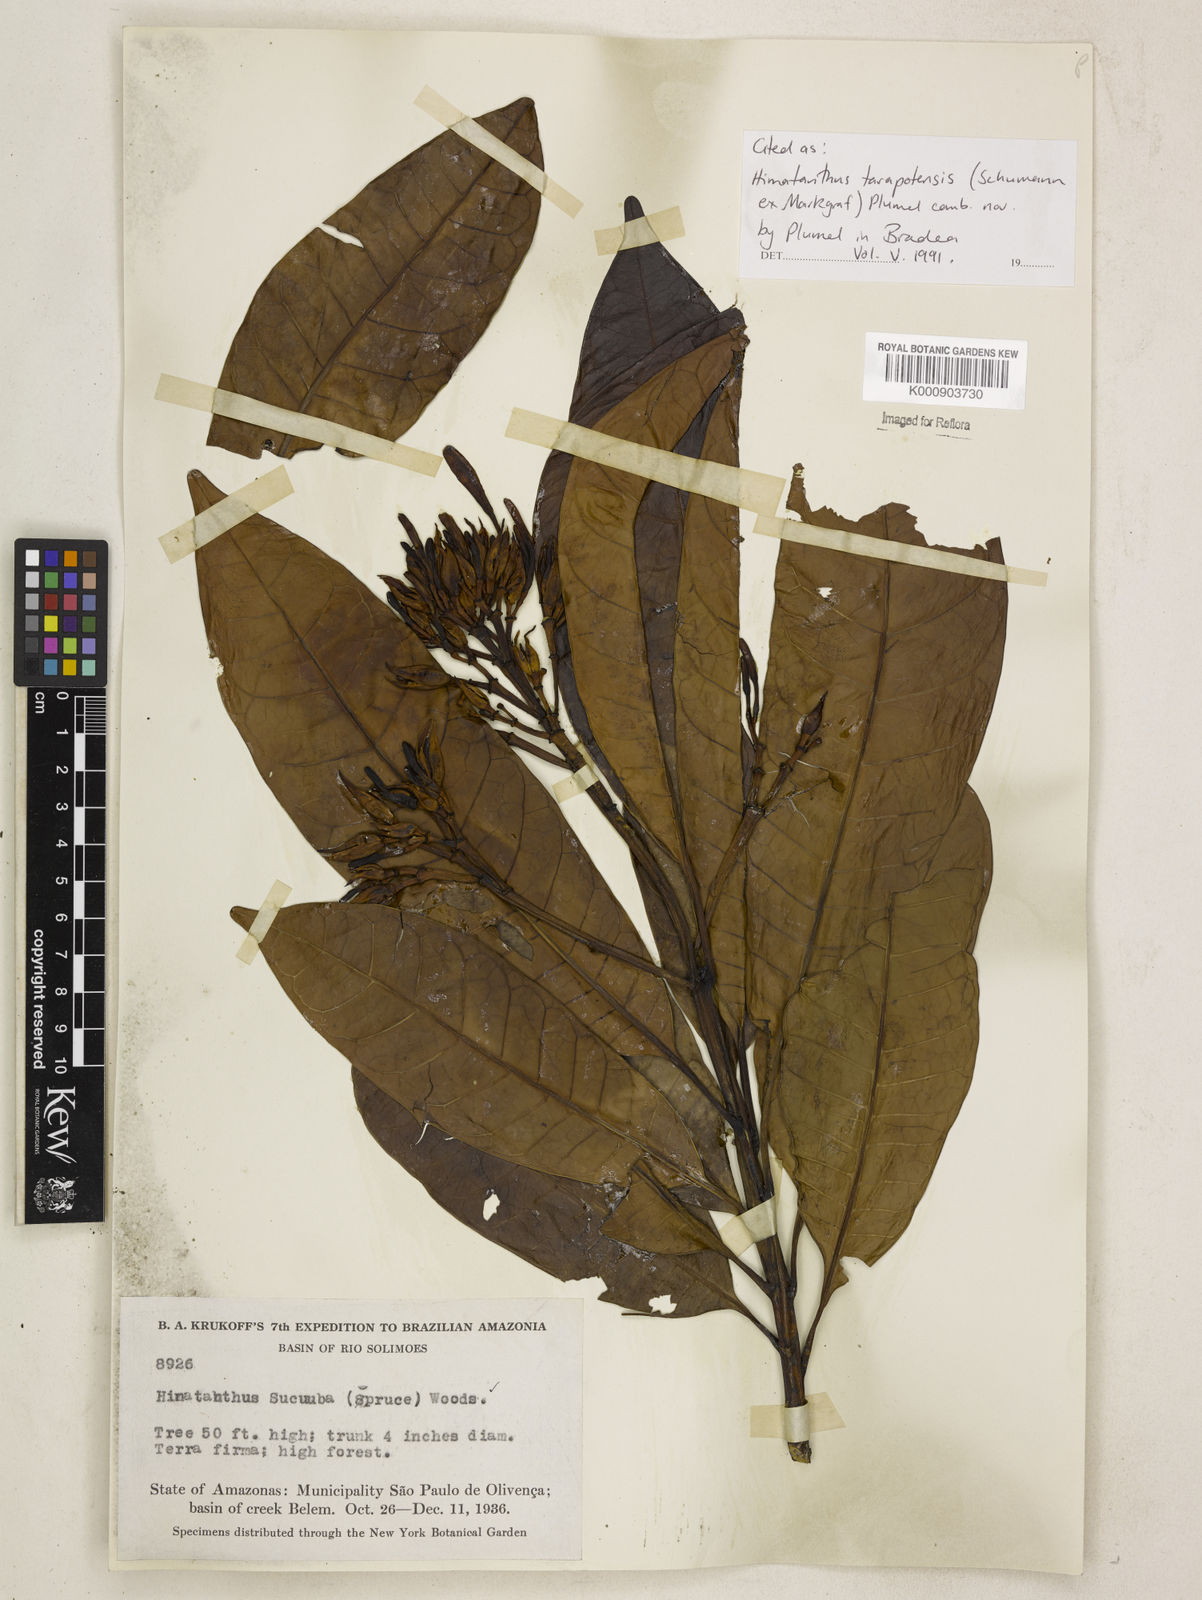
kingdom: Plantae
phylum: Tracheophyta
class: Magnoliopsida
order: Gentianales
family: Apocynaceae
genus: Himatanthus
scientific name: Himatanthus tarapotensis
